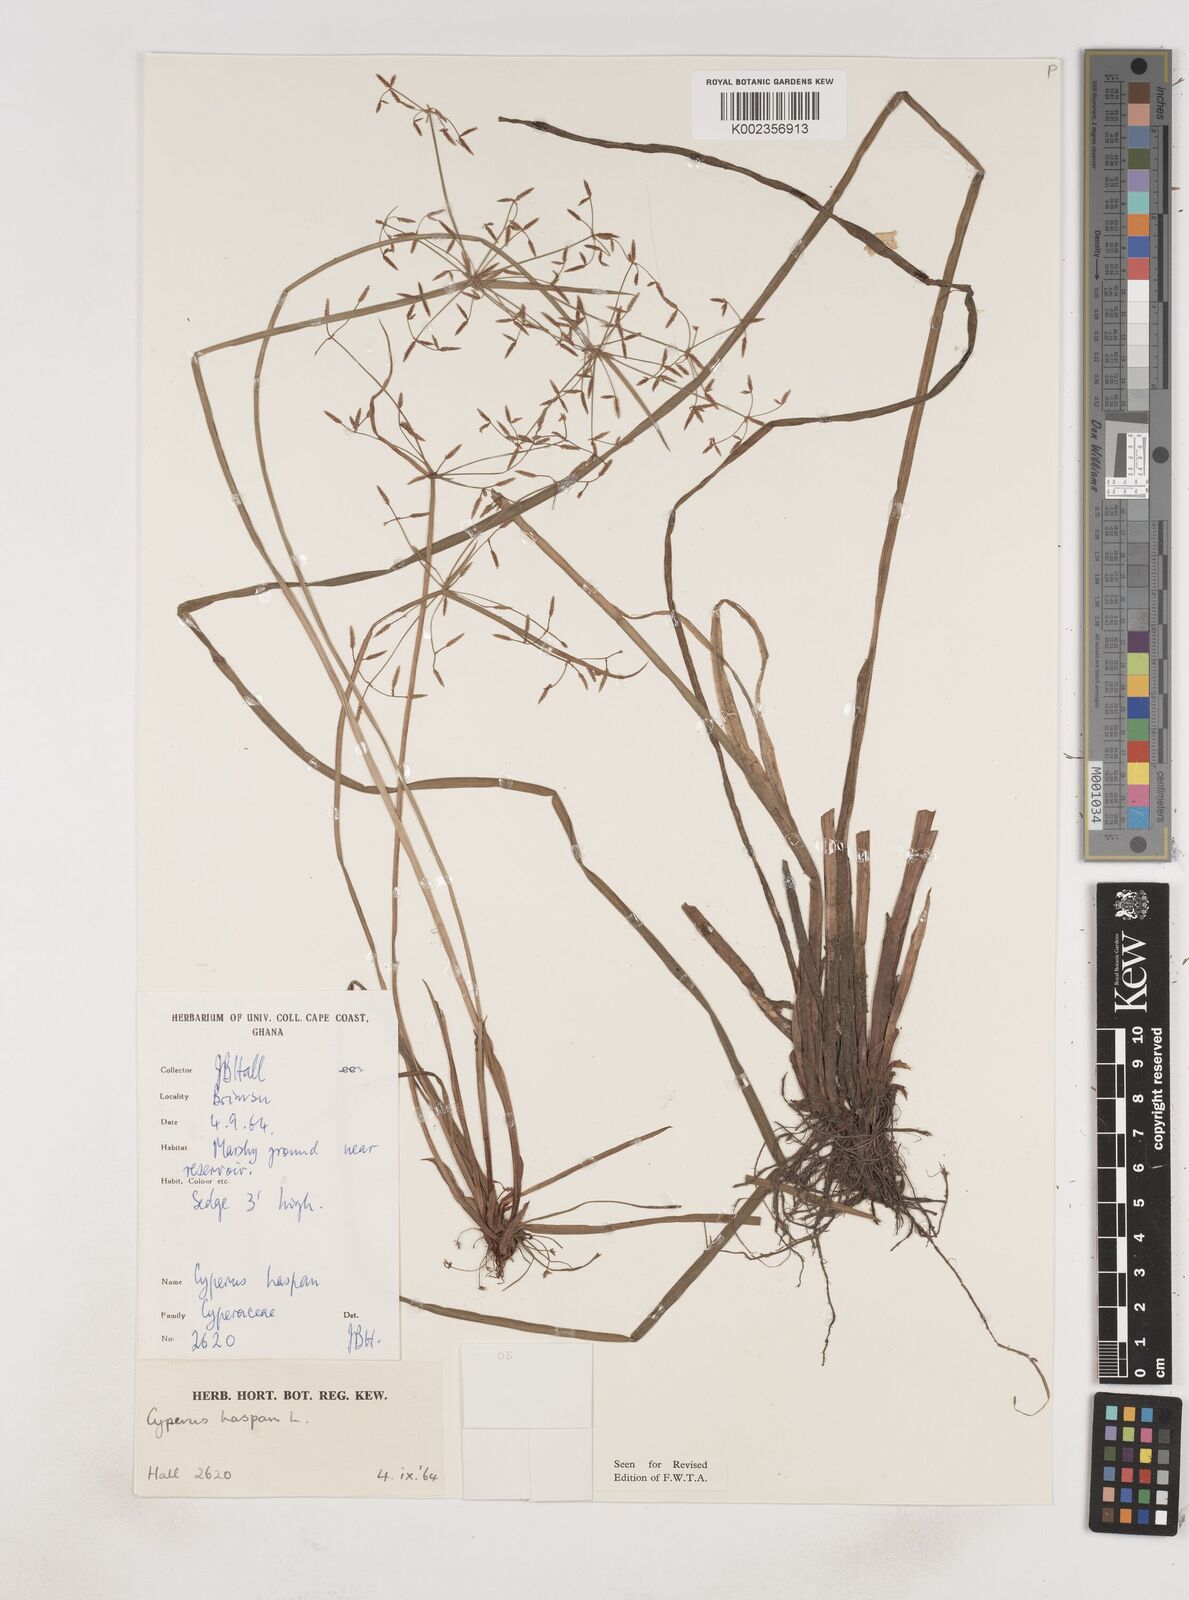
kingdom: Plantae
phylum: Tracheophyta
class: Liliopsida
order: Poales
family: Cyperaceae
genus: Cyperus
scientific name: Cyperus haspan
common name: Haspan flatsedge
